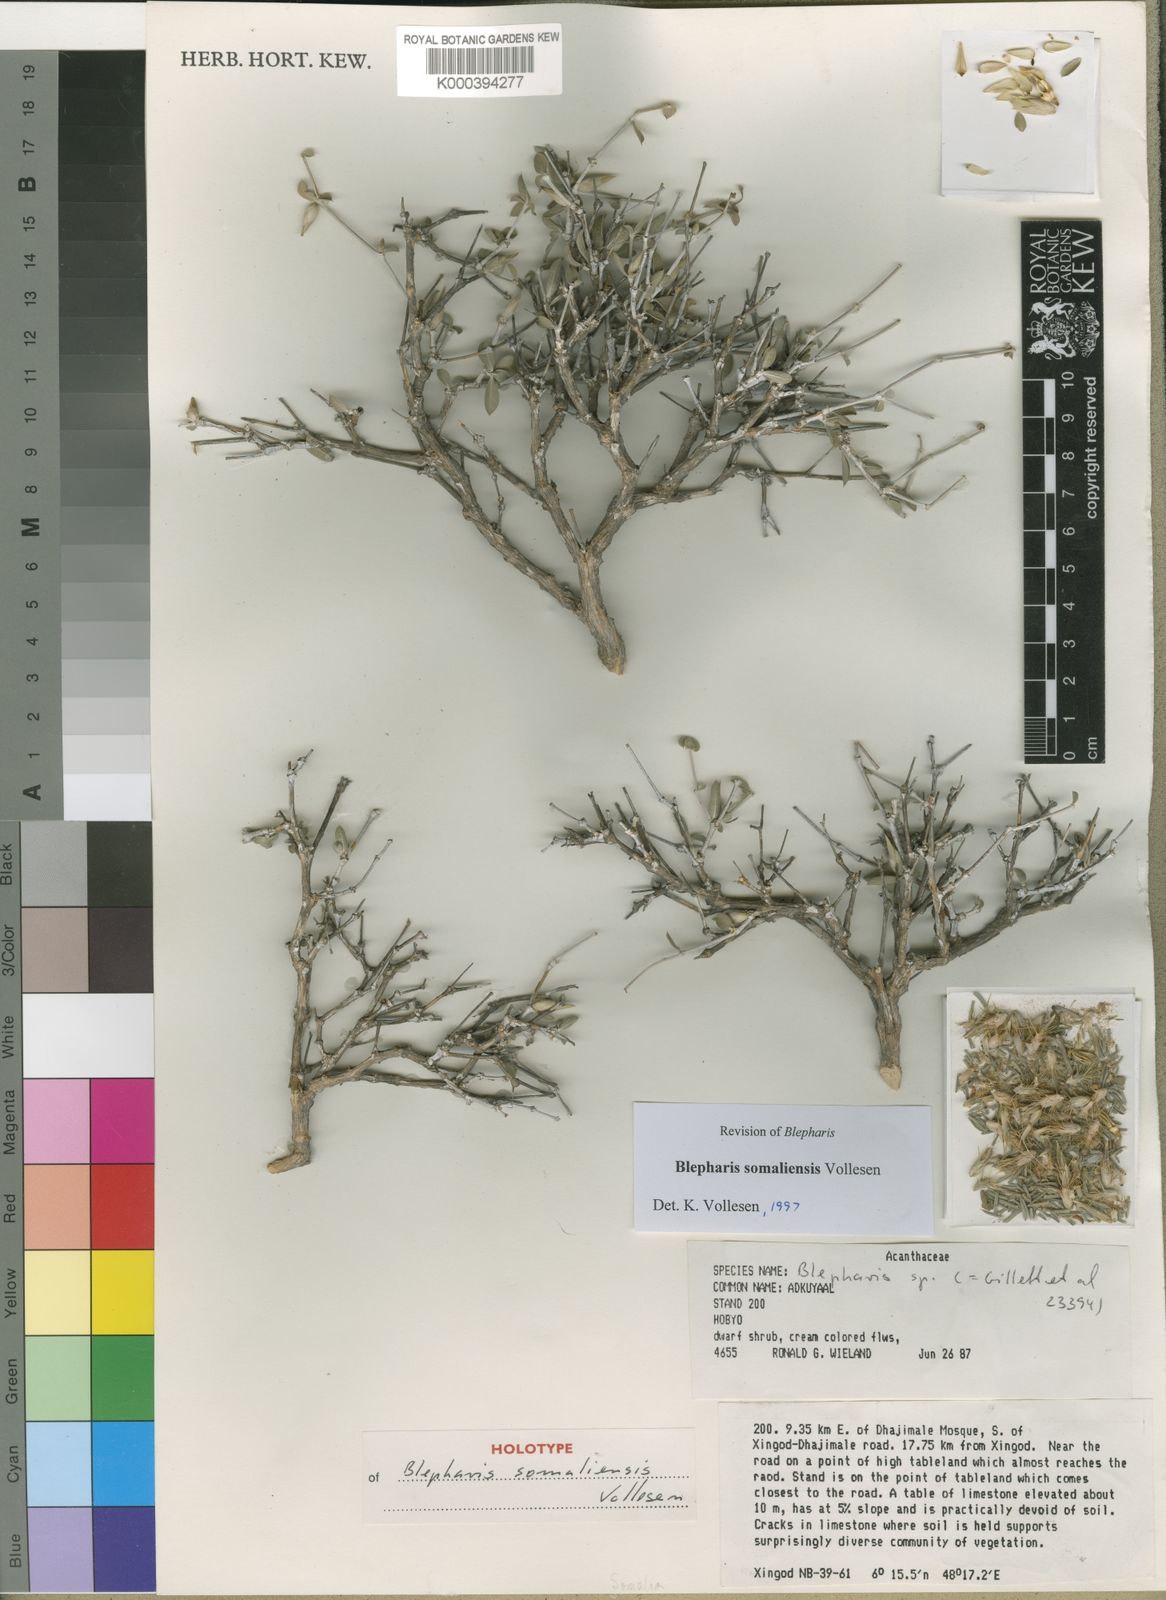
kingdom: Plantae
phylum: Tracheophyta
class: Magnoliopsida
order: Lamiales
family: Acanthaceae
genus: Blepharis
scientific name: Blepharis somaliensis
